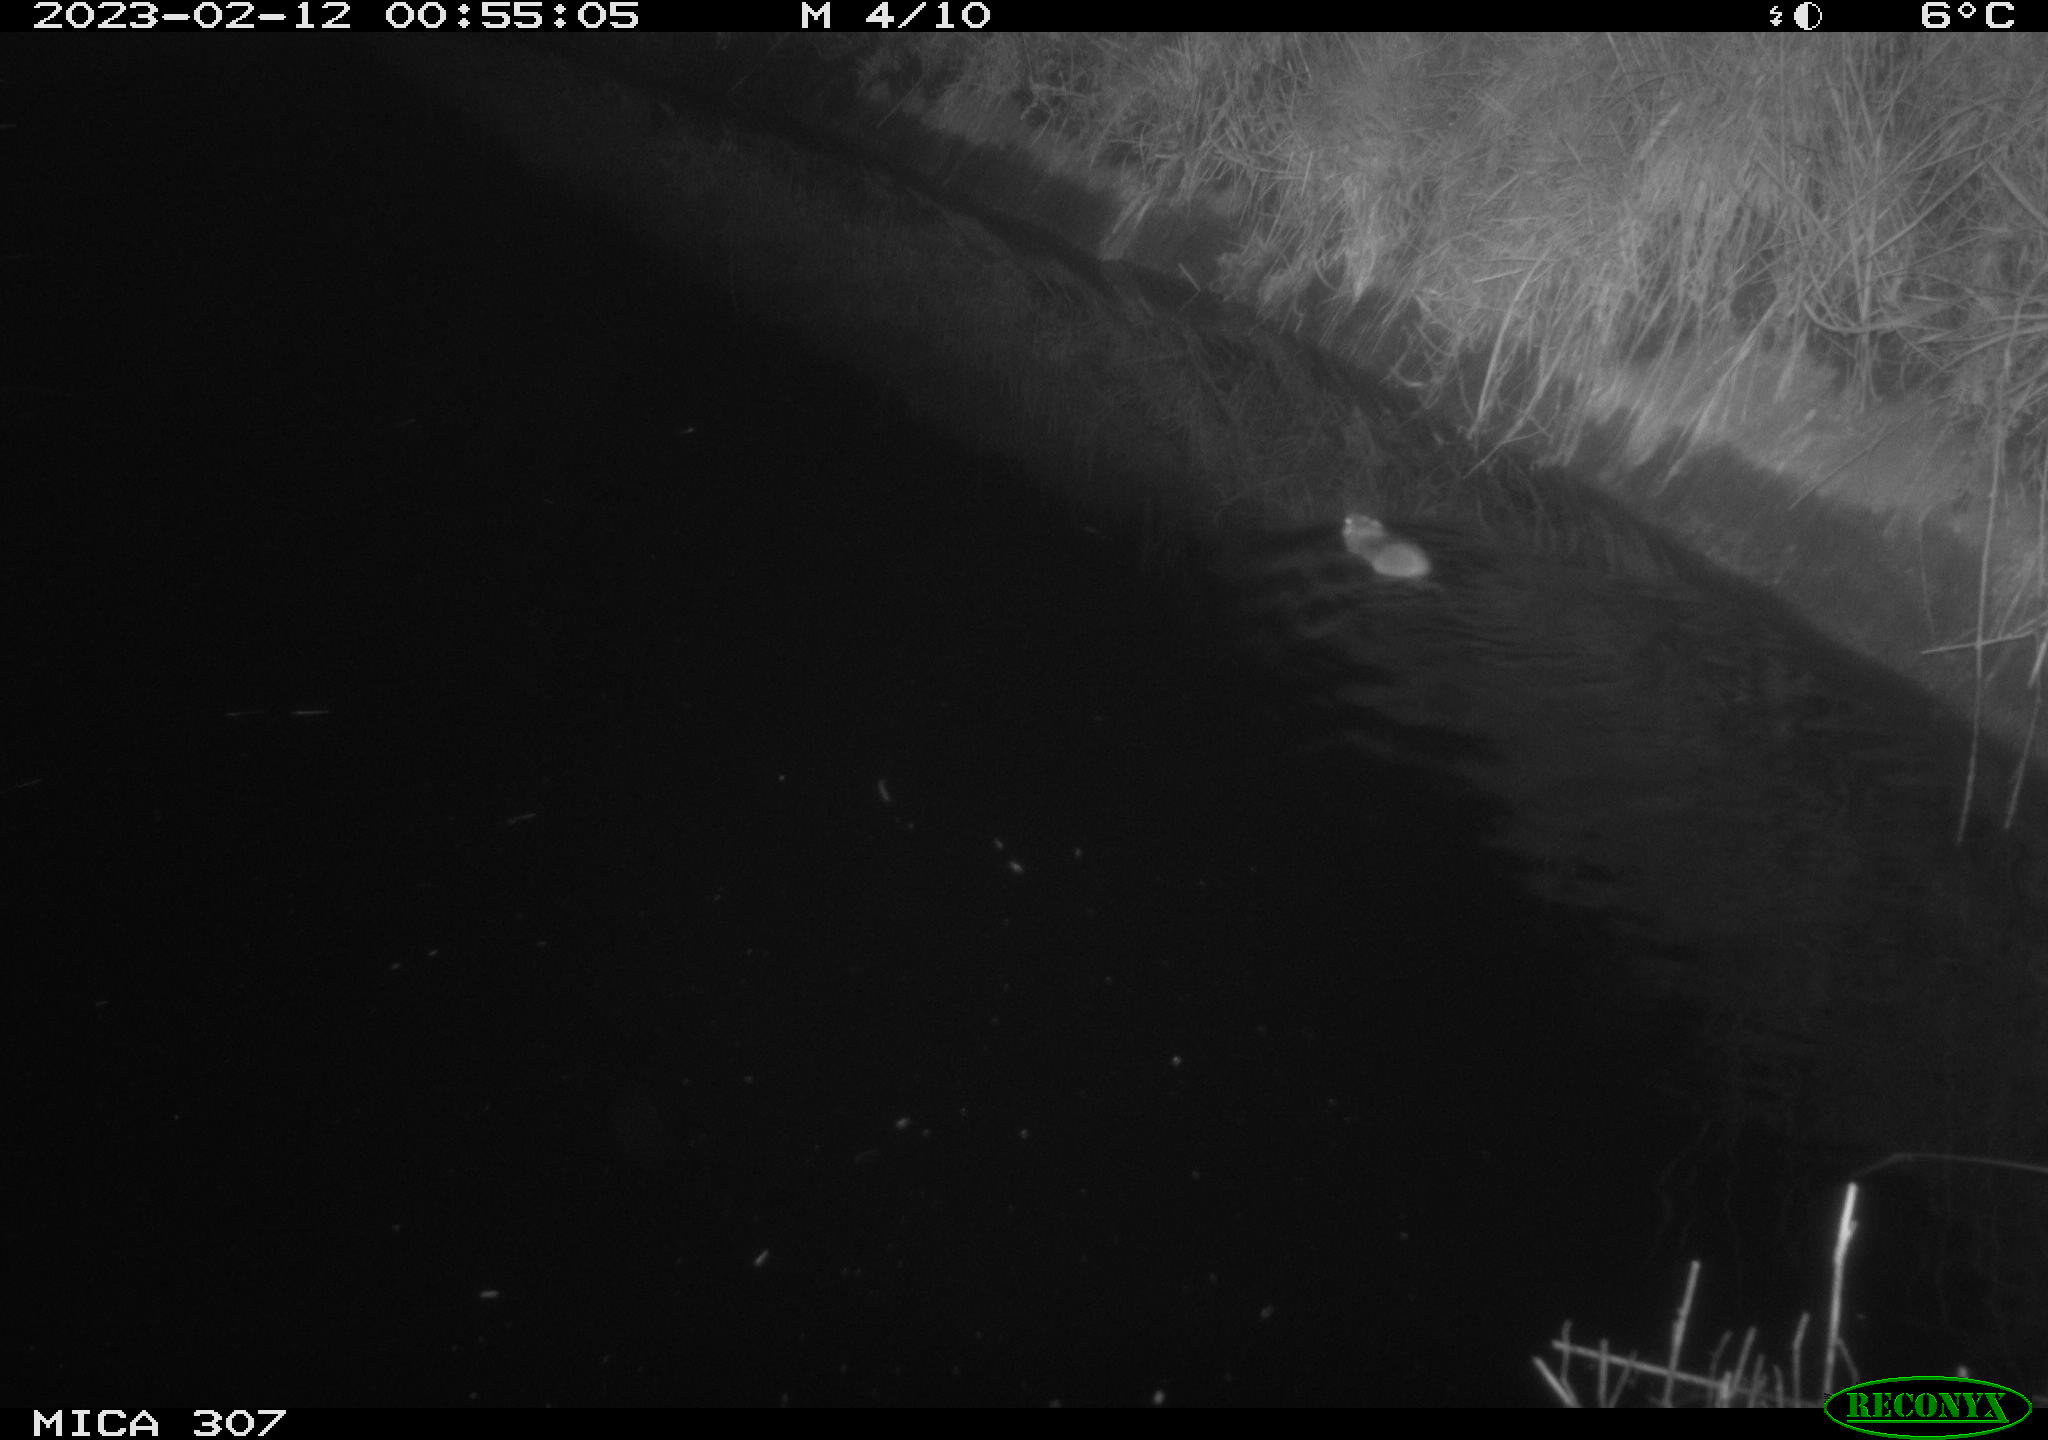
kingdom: Animalia
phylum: Chordata
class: Mammalia
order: Rodentia
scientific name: Rodentia
